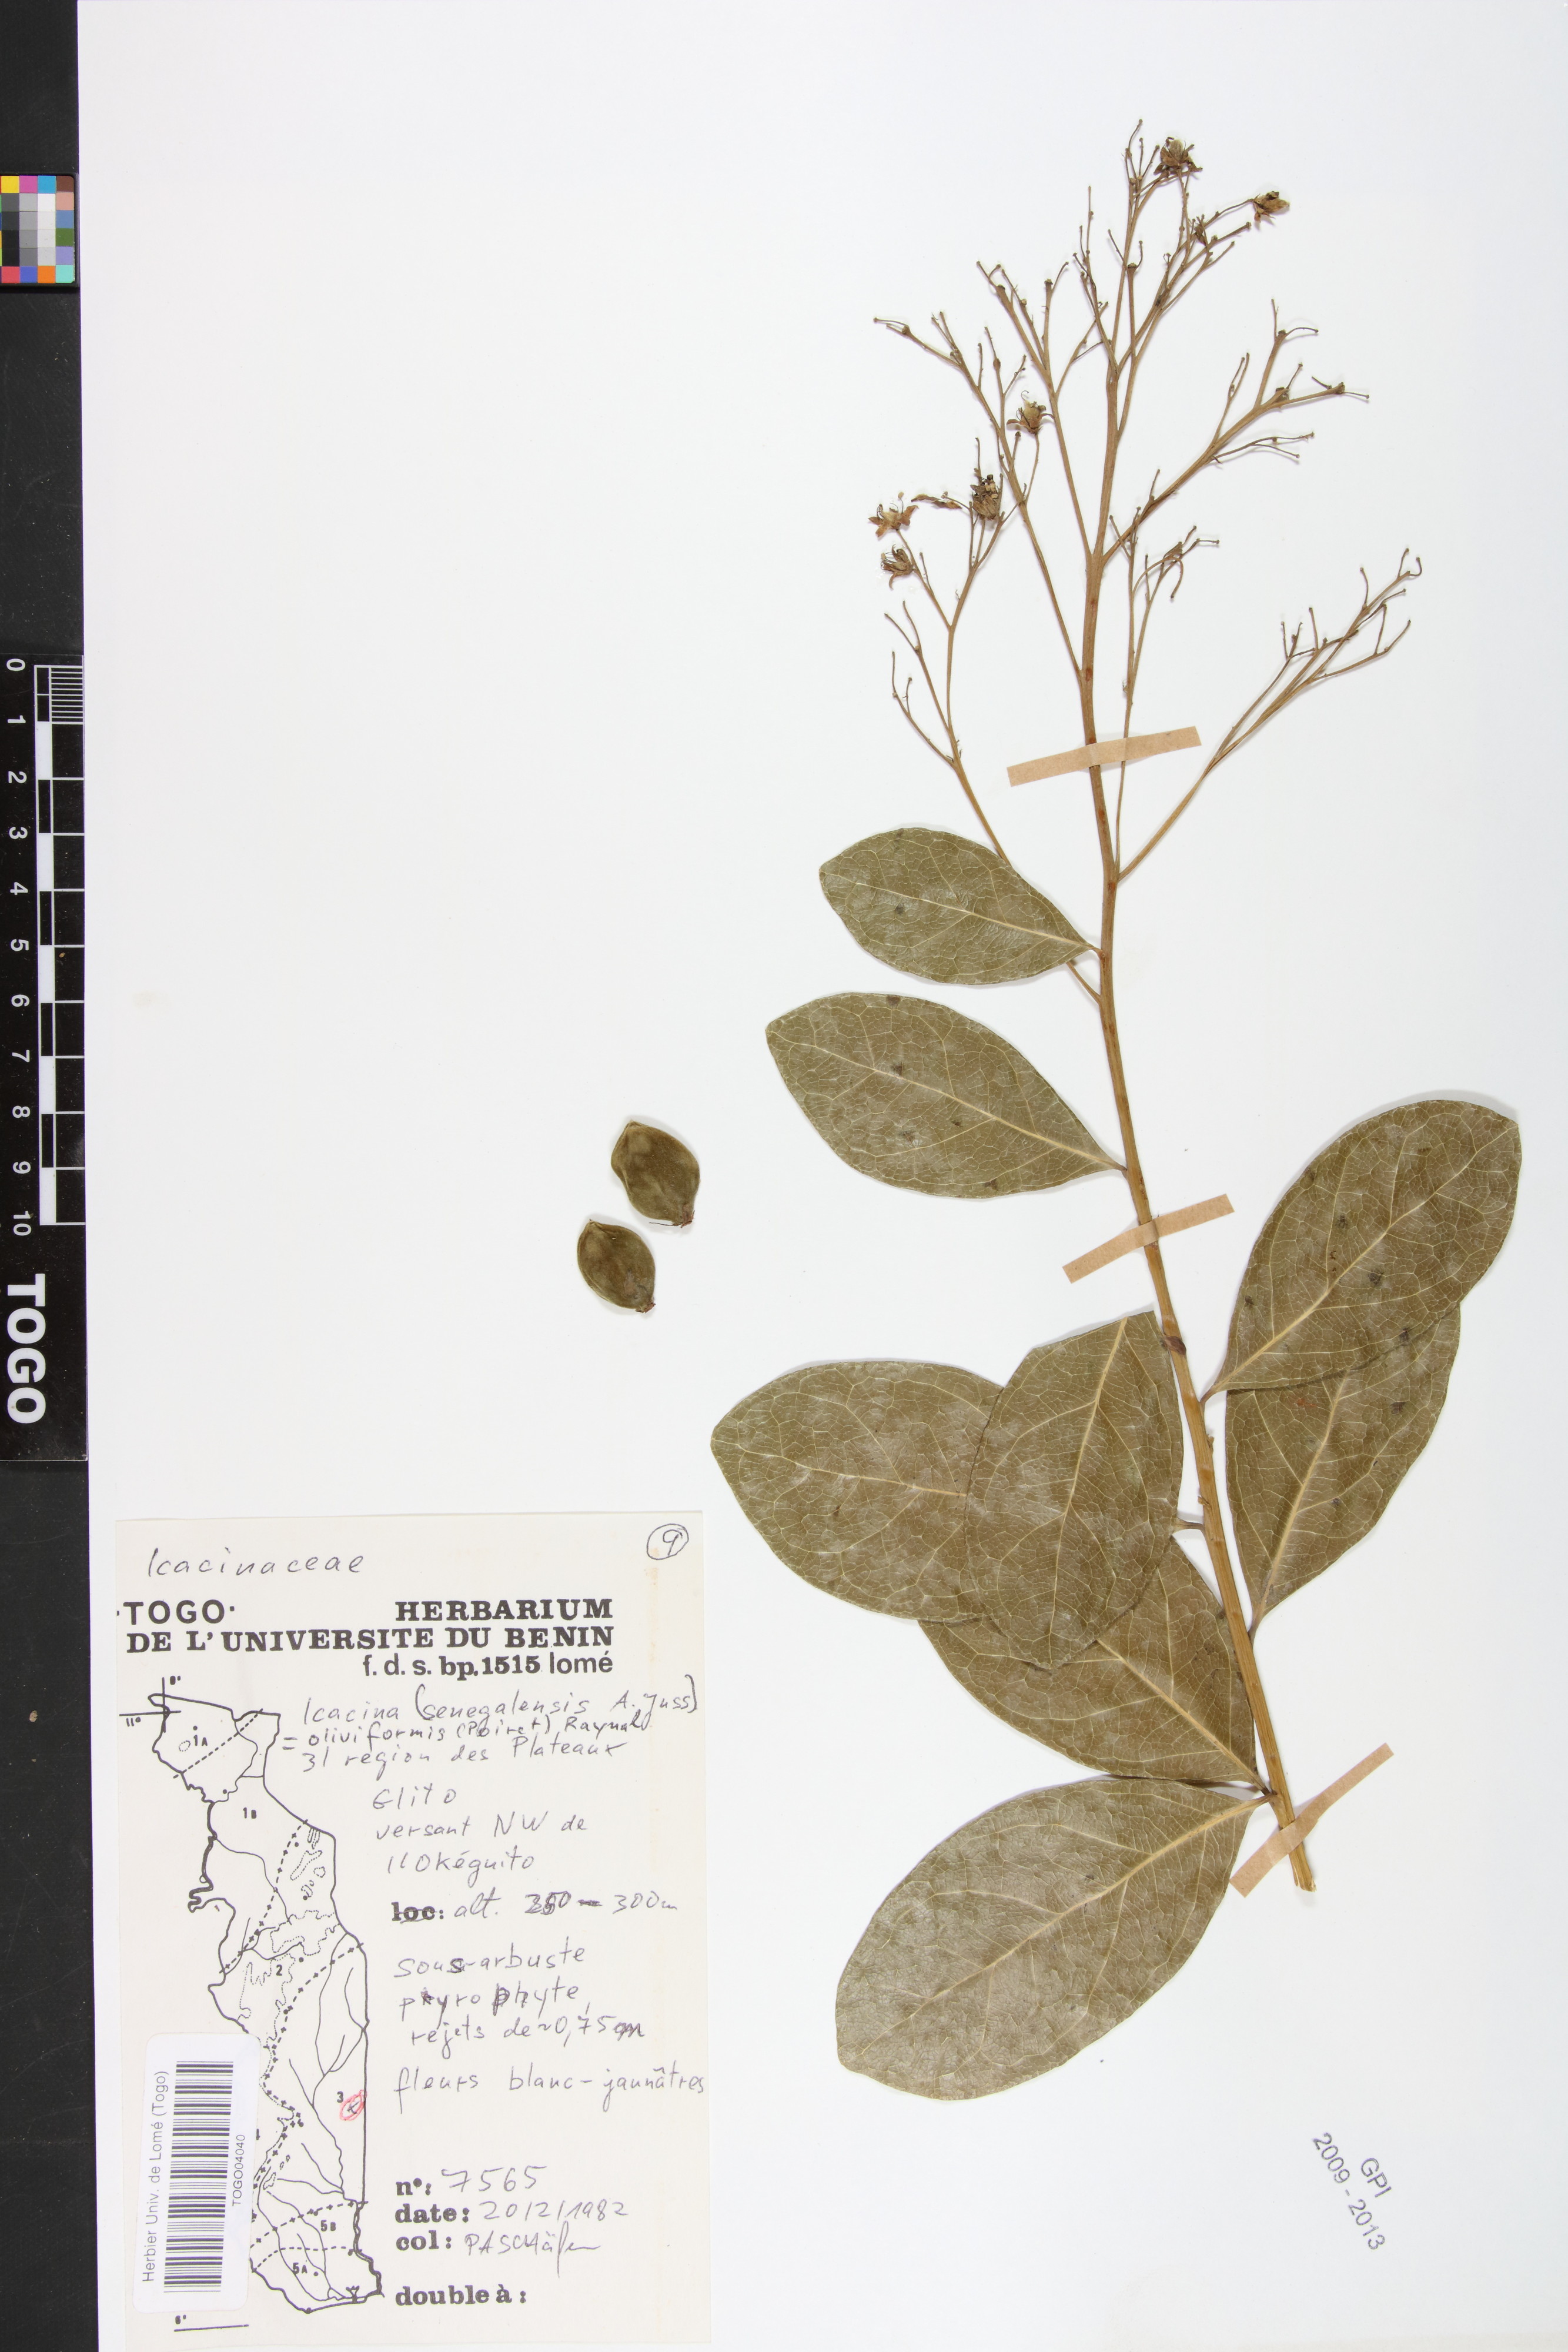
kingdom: Plantae
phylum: Tracheophyta
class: Magnoliopsida
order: Icacinales
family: Icacinaceae
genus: Icacina
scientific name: Icacina oliviformis
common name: False yam
